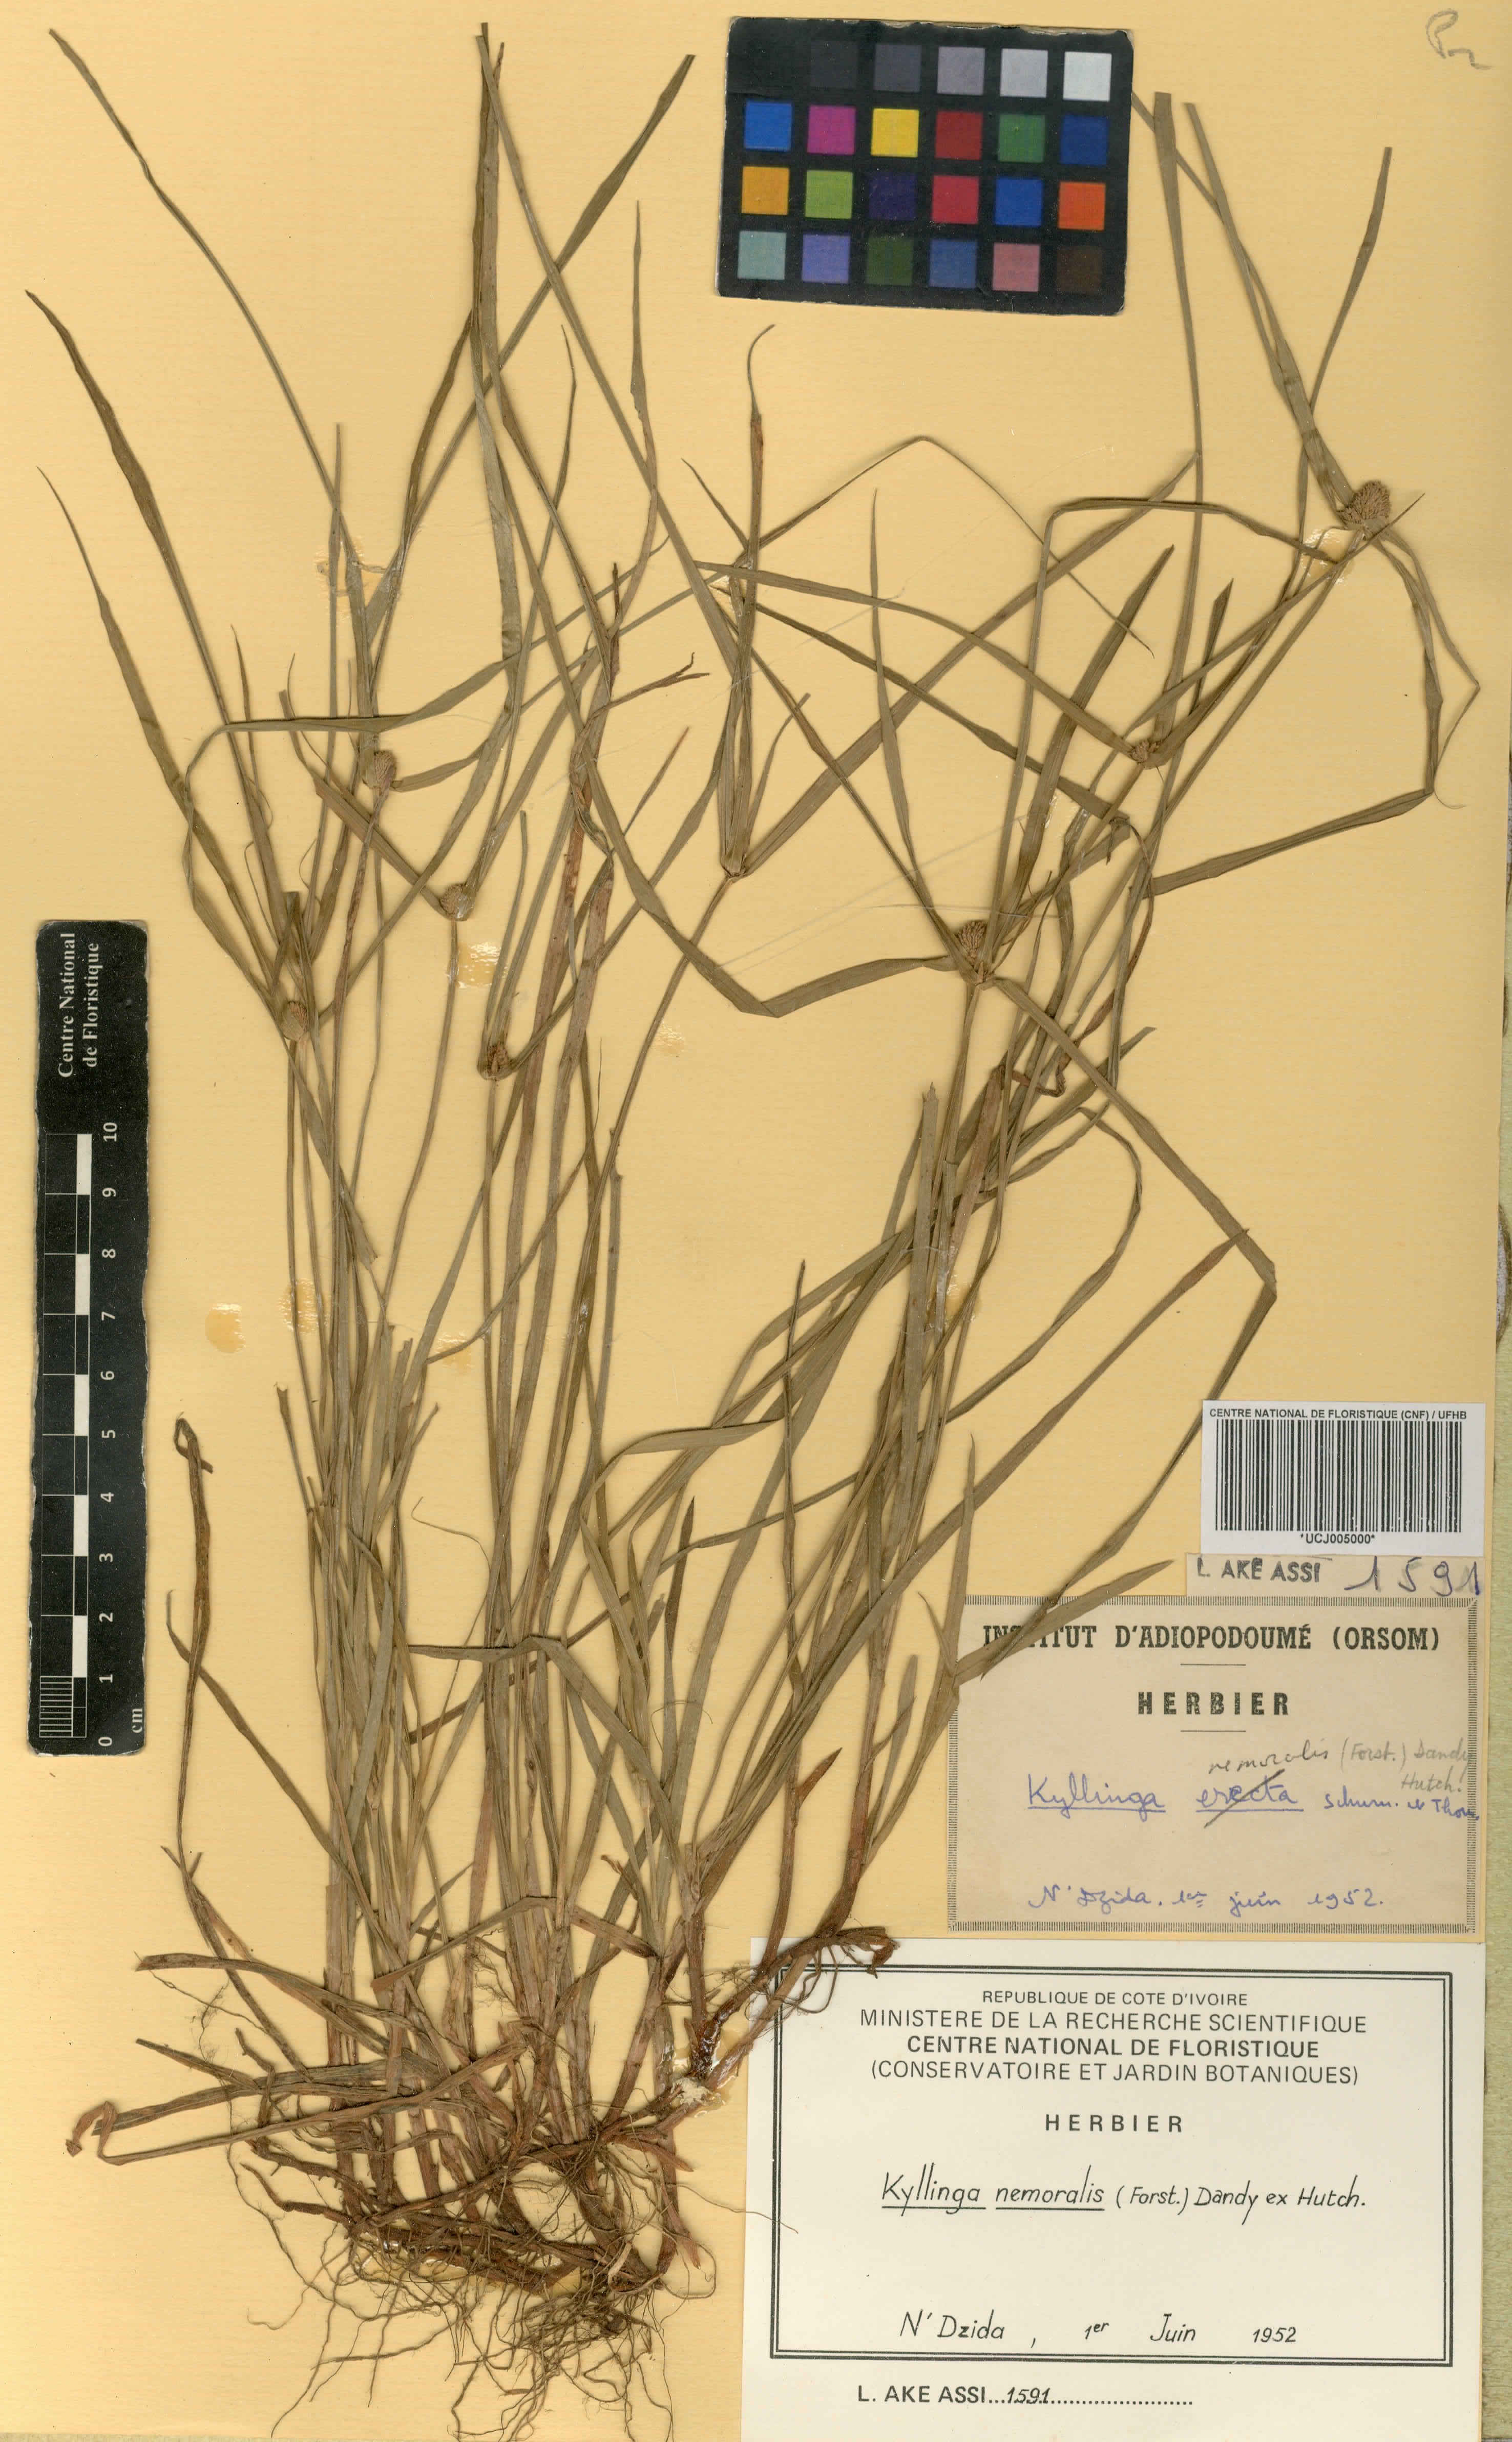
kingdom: Plantae
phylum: Tracheophyta
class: Liliopsida
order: Poales
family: Cyperaceae
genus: Cyperus
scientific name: Cyperus mindorensis
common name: Flatsedge
